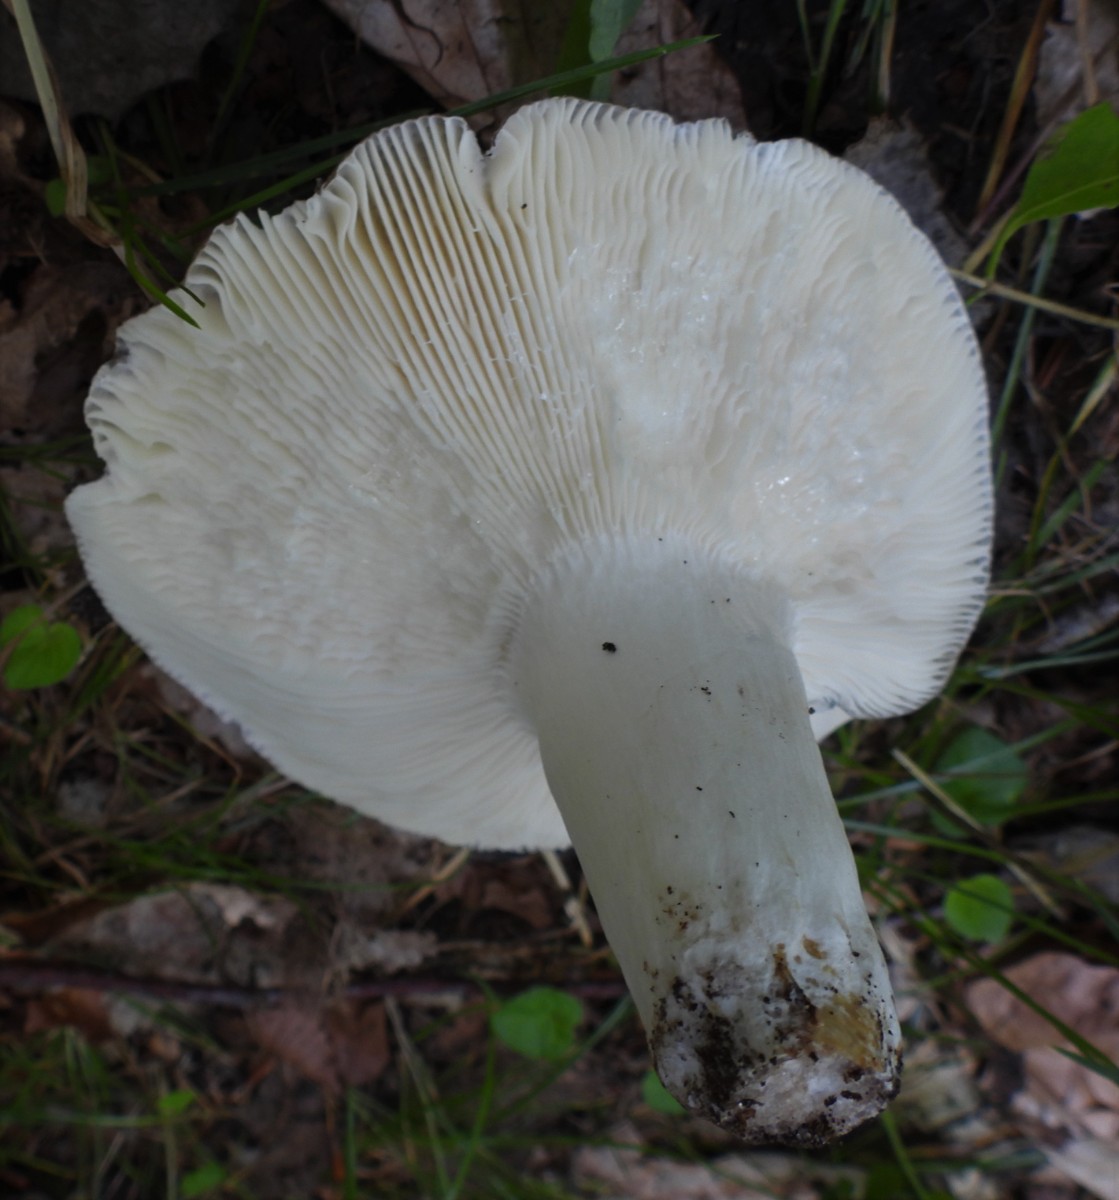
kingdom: Fungi
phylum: Basidiomycota
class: Agaricomycetes
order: Russulales
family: Russulaceae
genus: Russula
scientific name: Russula aeruginea
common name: græsgrøn skørhat
